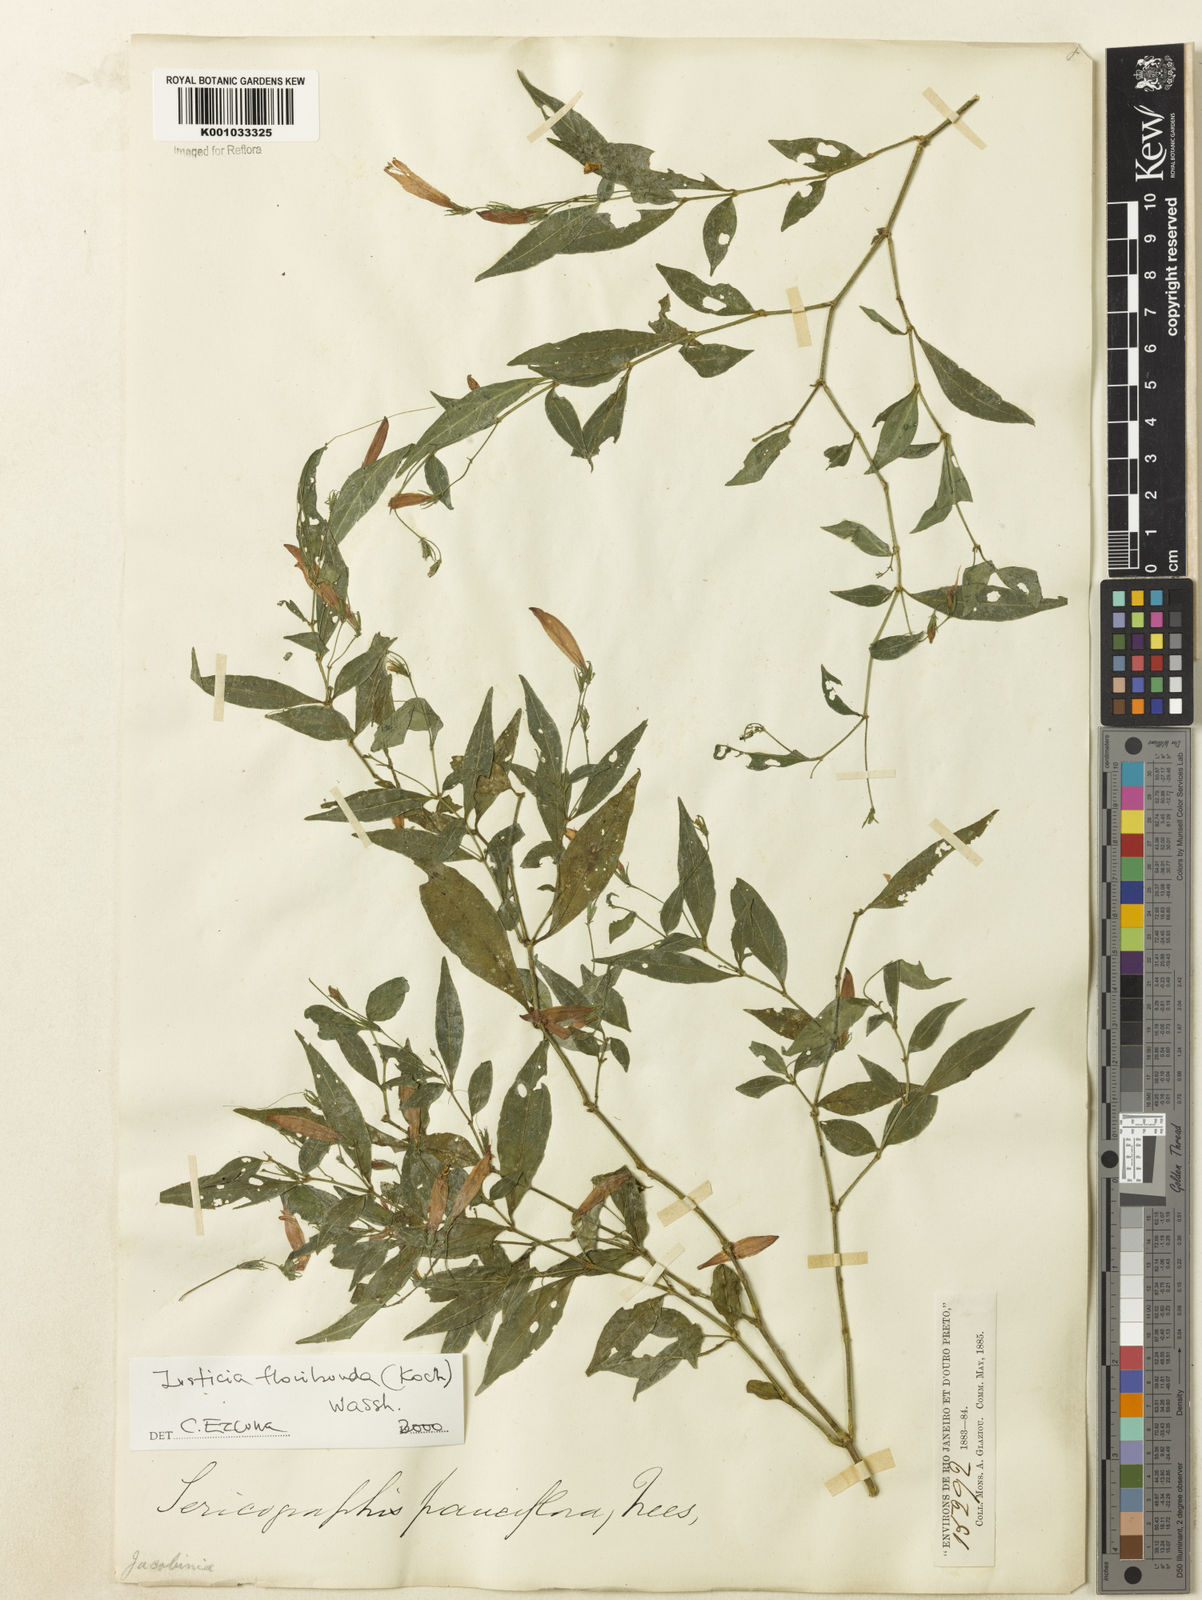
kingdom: Plantae
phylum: Tracheophyta
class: Magnoliopsida
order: Lamiales
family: Acanthaceae
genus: Justicia
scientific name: Justicia floribunda
